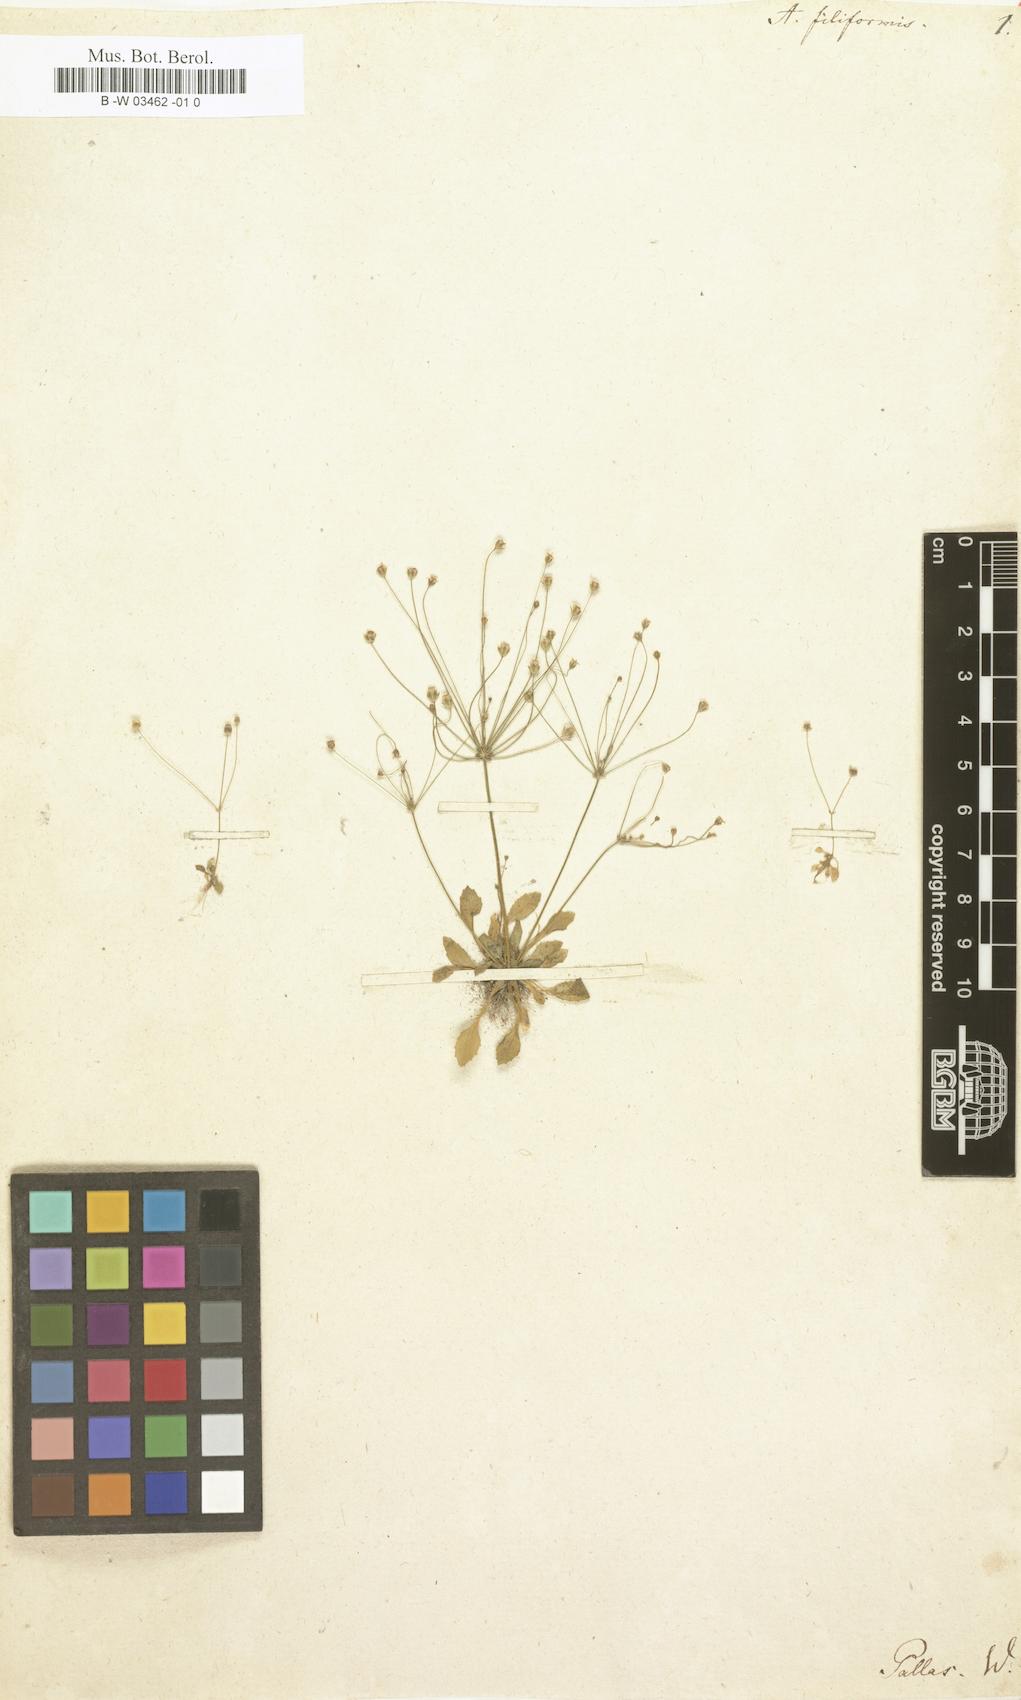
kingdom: Plantae
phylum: Tracheophyta
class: Magnoliopsida
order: Ericales
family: Primulaceae
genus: Androsace
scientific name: Androsace filiformis
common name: Filiform rock jasmine
